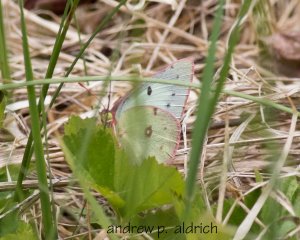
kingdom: Animalia
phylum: Arthropoda
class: Insecta
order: Lepidoptera
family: Pieridae
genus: Colias
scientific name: Colias philodice
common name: Clouded Sulphur
